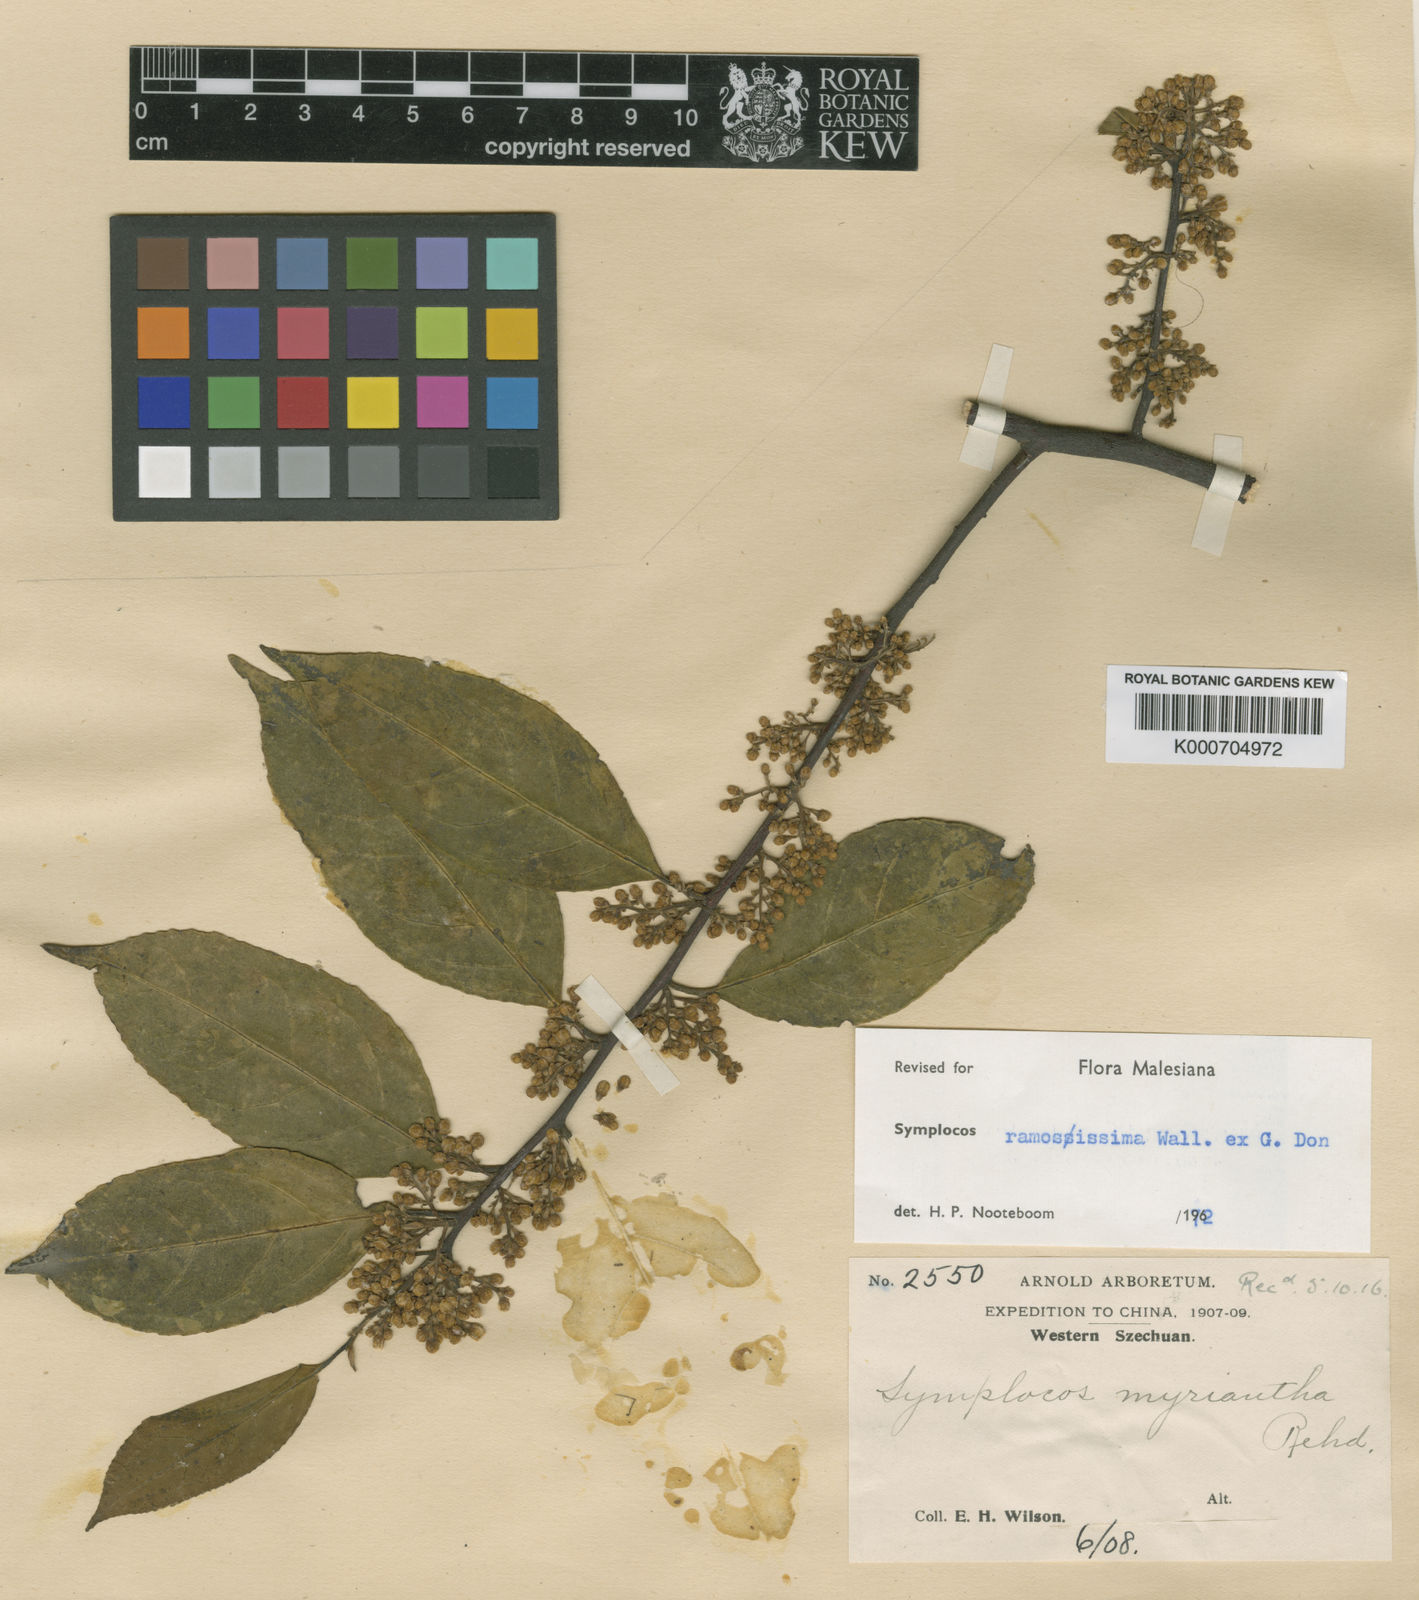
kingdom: Plantae
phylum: Tracheophyta
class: Magnoliopsida
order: Ericales
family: Symplocaceae
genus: Symplocos
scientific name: Symplocos
